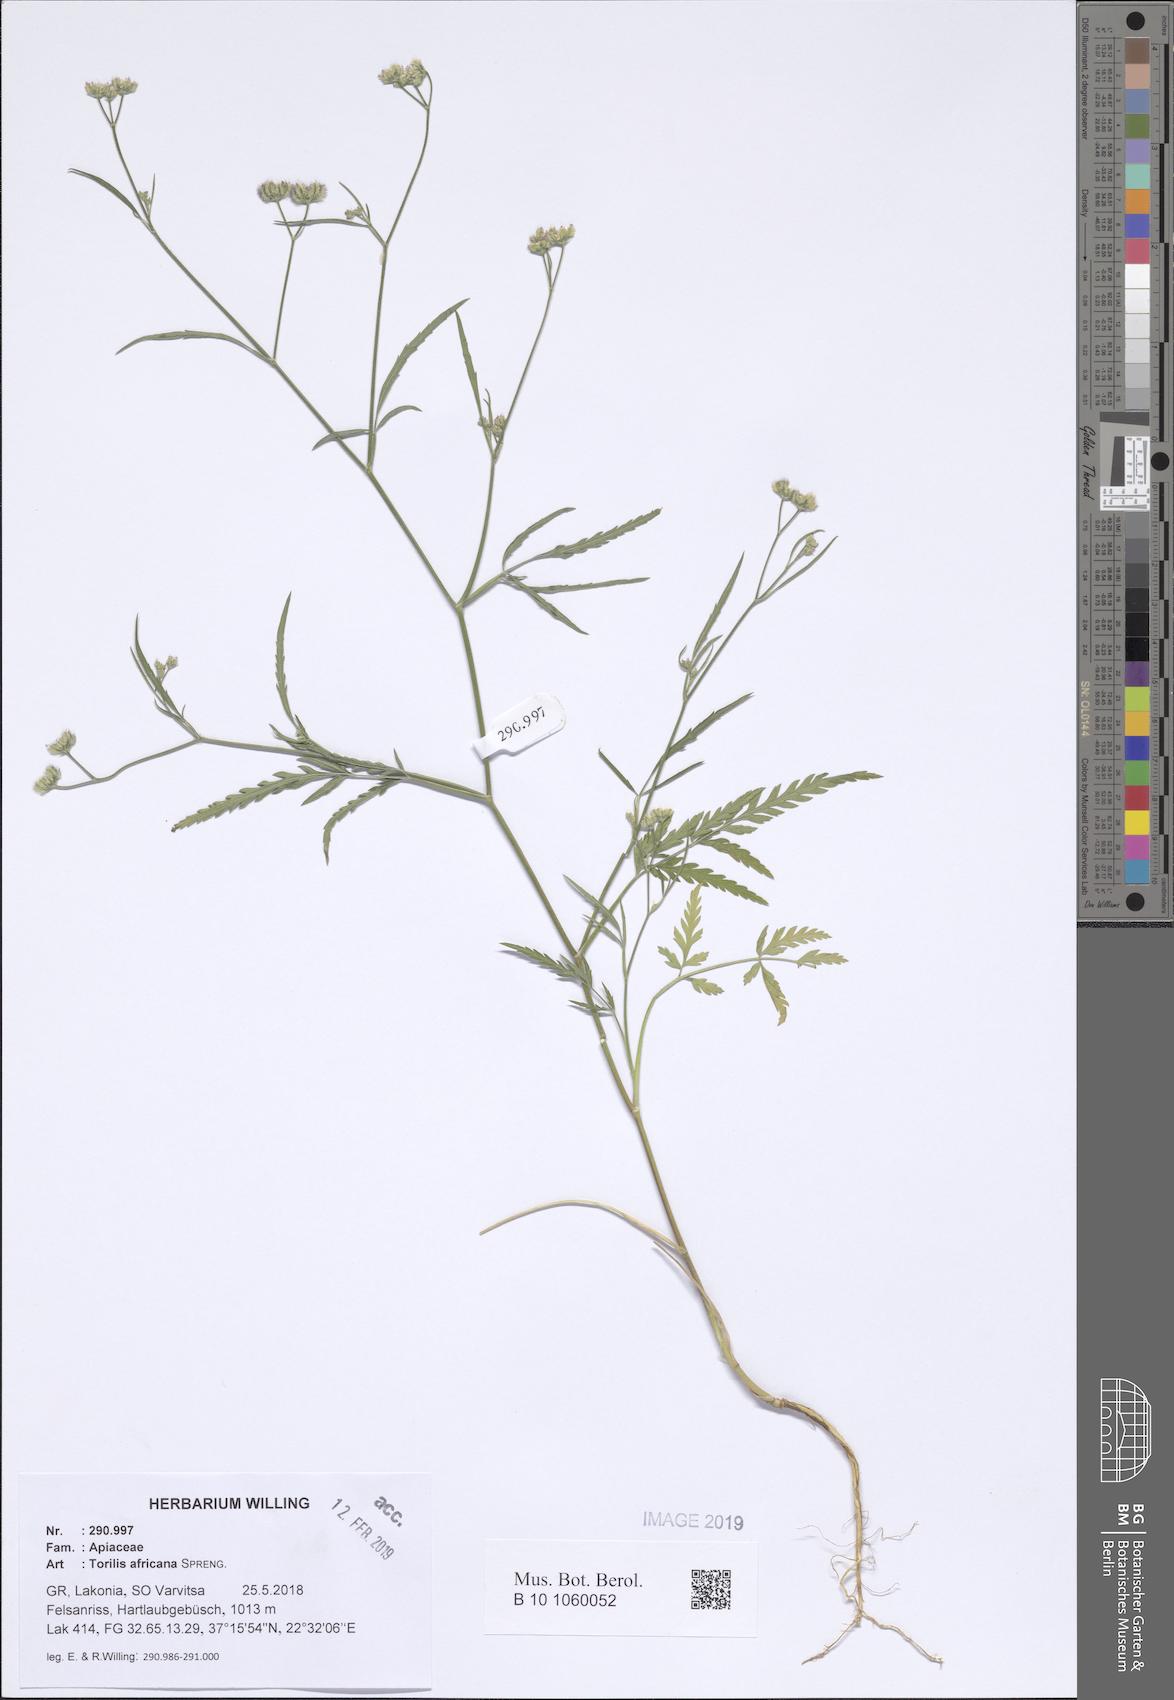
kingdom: Plantae
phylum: Tracheophyta
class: Magnoliopsida
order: Apiales
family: Apiaceae
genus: Torilis
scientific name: Torilis africana
